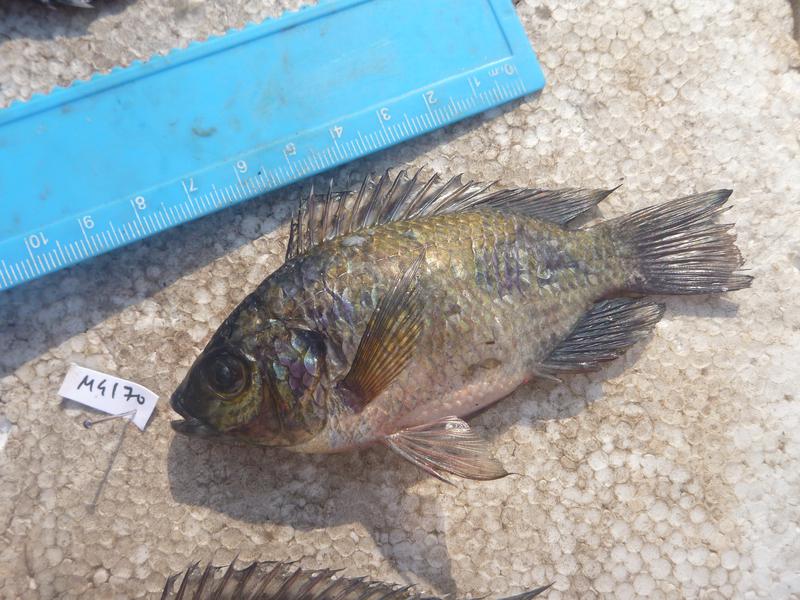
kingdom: Animalia
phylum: Chordata
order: Perciformes
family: Cichlidae
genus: Oreochromis
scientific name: Oreochromis leucostictus
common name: Blue spotted tilapia
